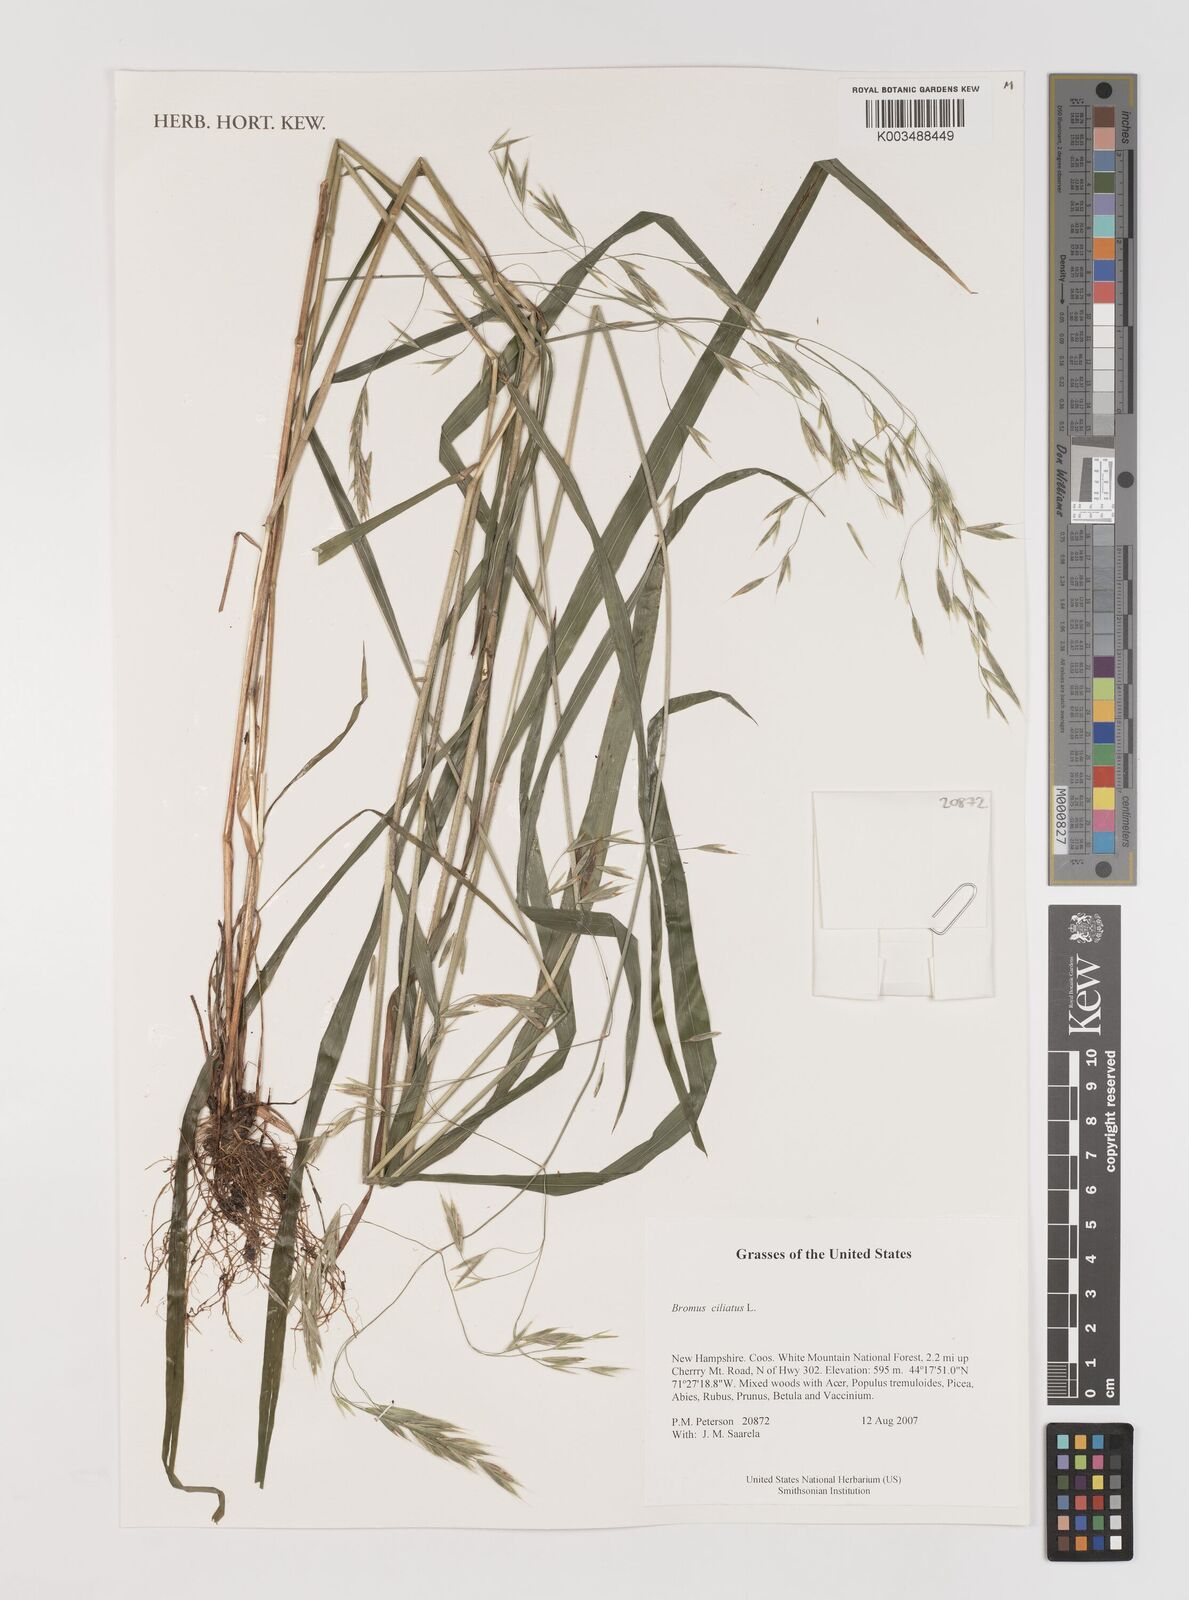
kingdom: Plantae
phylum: Tracheophyta
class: Liliopsida
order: Poales
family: Poaceae
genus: Bromus
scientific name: Bromus ciliatus
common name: Fringe brome
